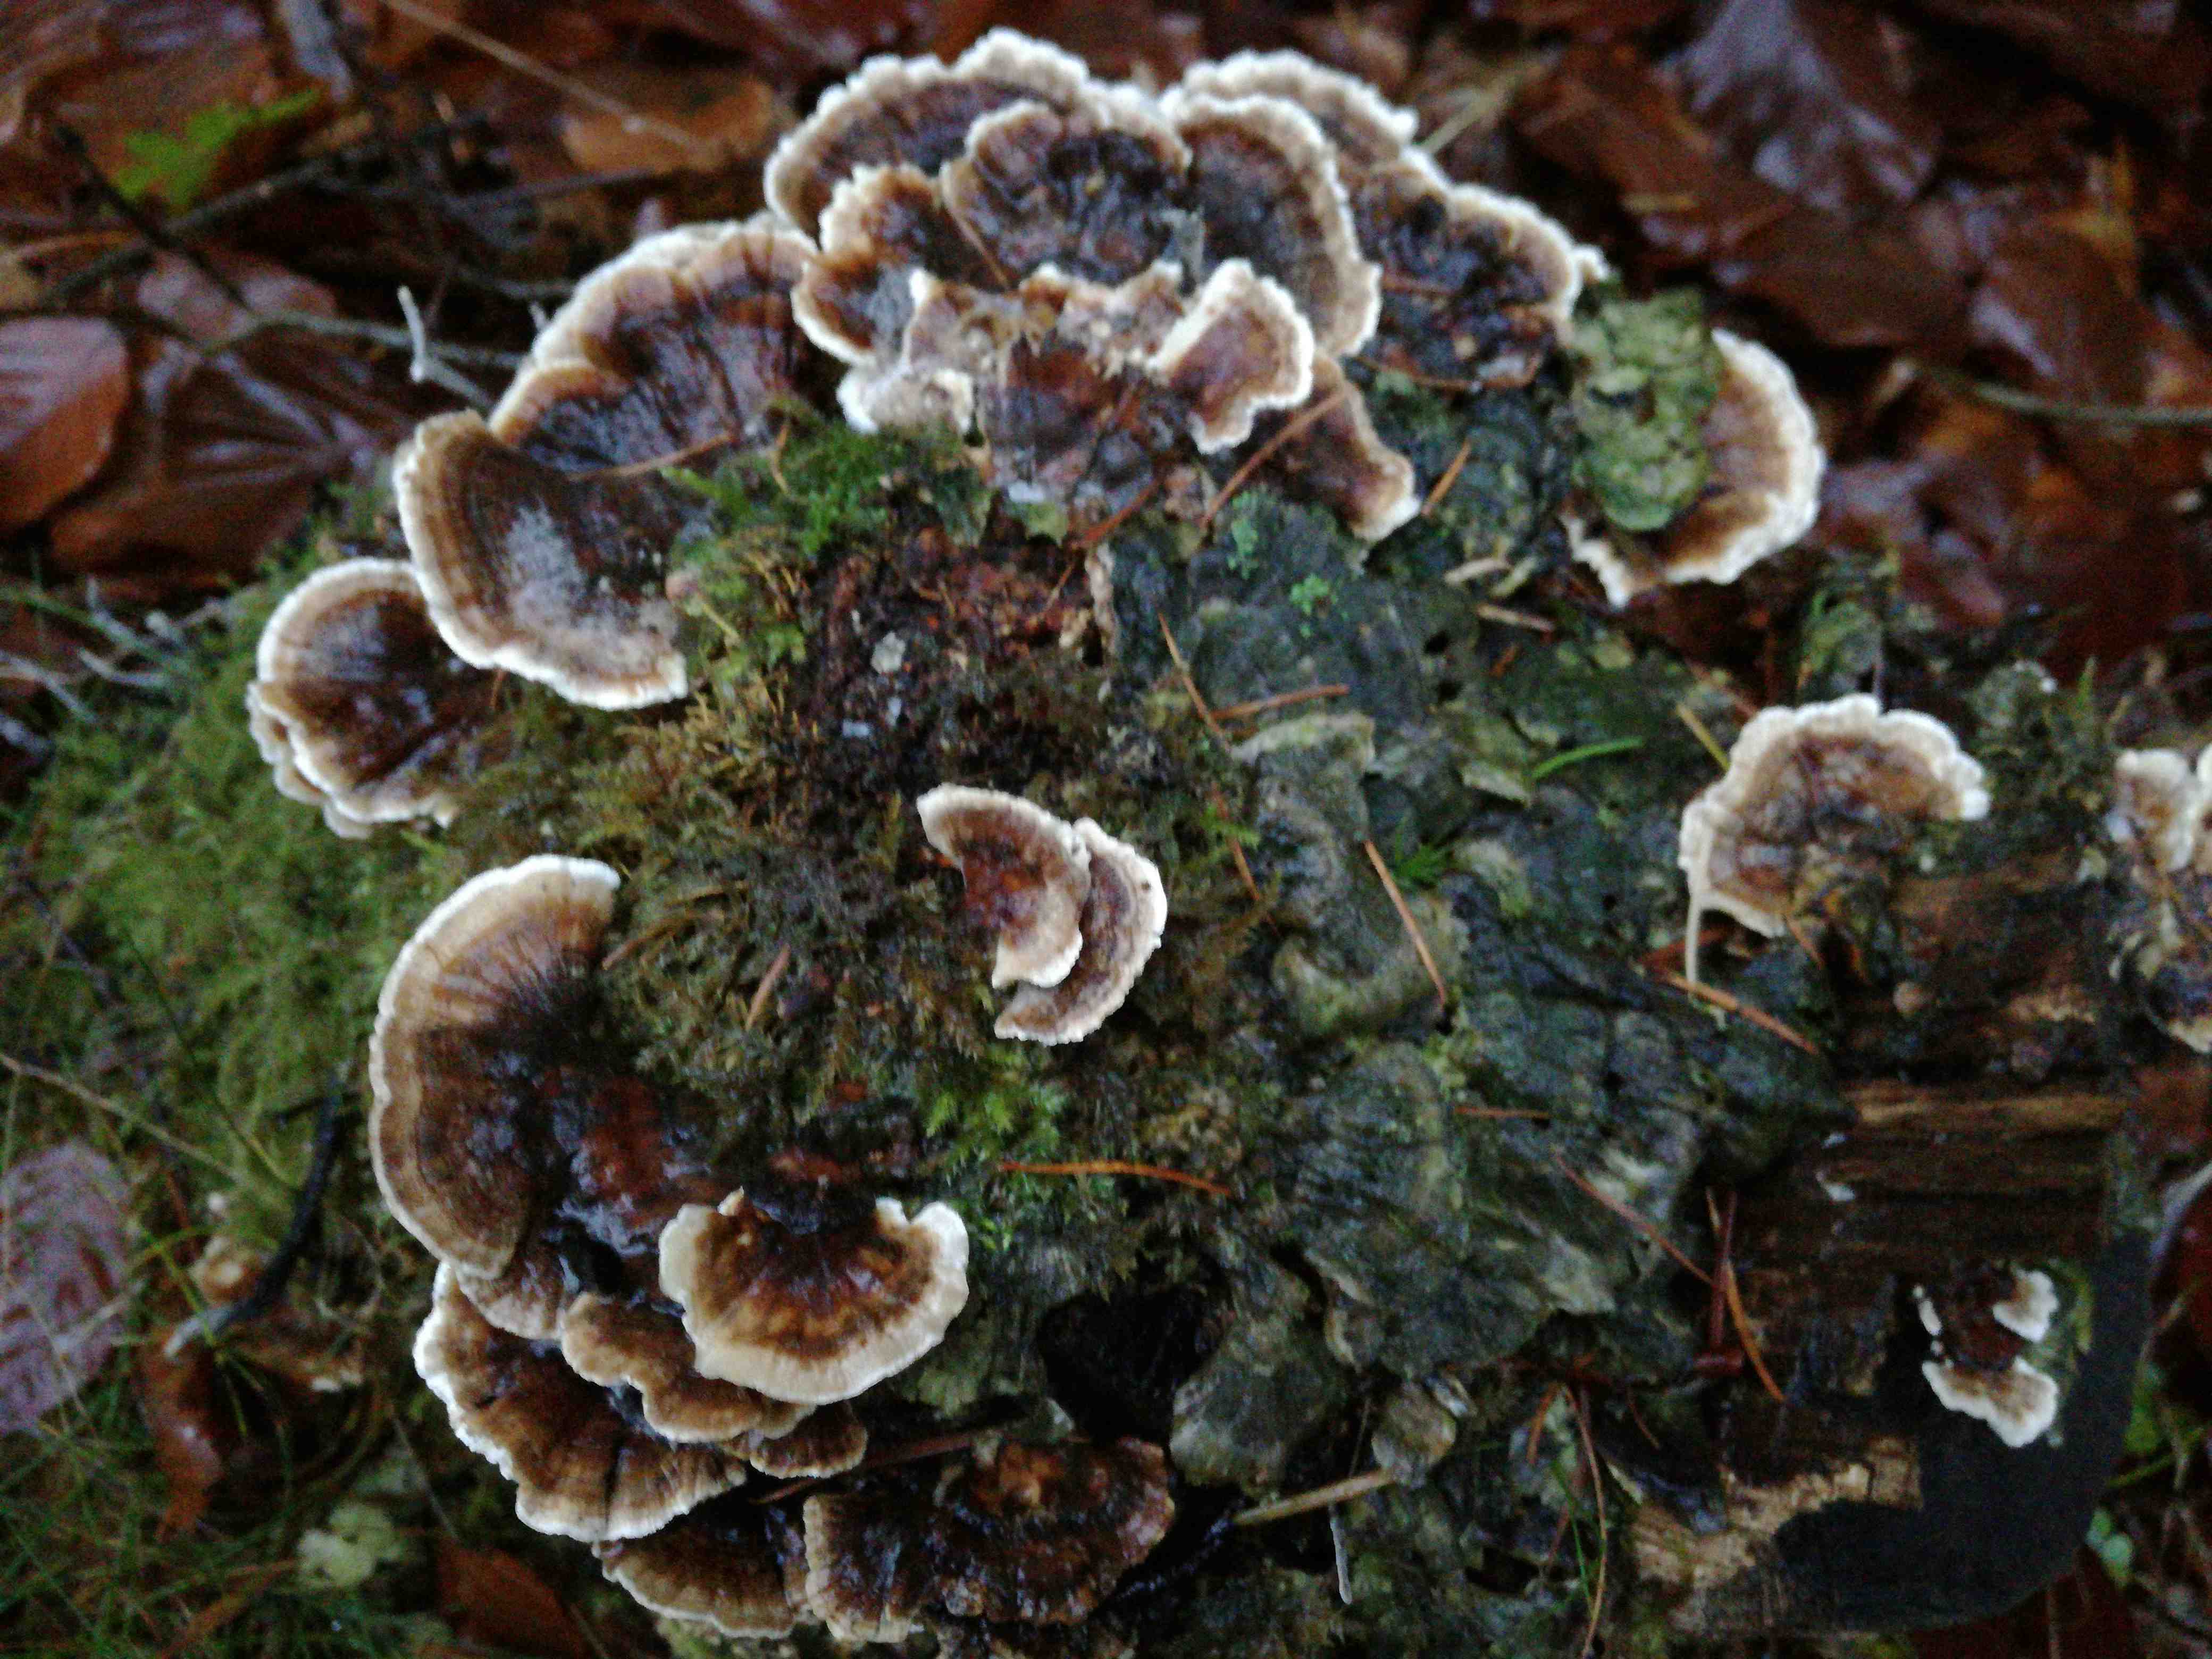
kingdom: Fungi
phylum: Basidiomycota
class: Agaricomycetes
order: Polyporales
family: Polyporaceae
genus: Trametes
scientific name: Trametes versicolor
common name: broget læderporesvamp
